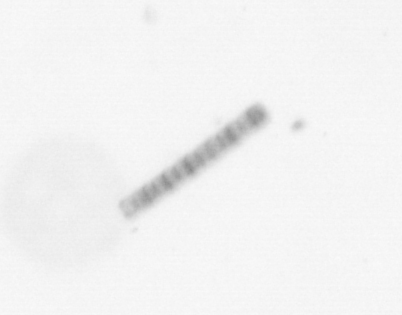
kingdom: Chromista
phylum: Ochrophyta
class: Bacillariophyceae
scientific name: Bacillariophyceae
